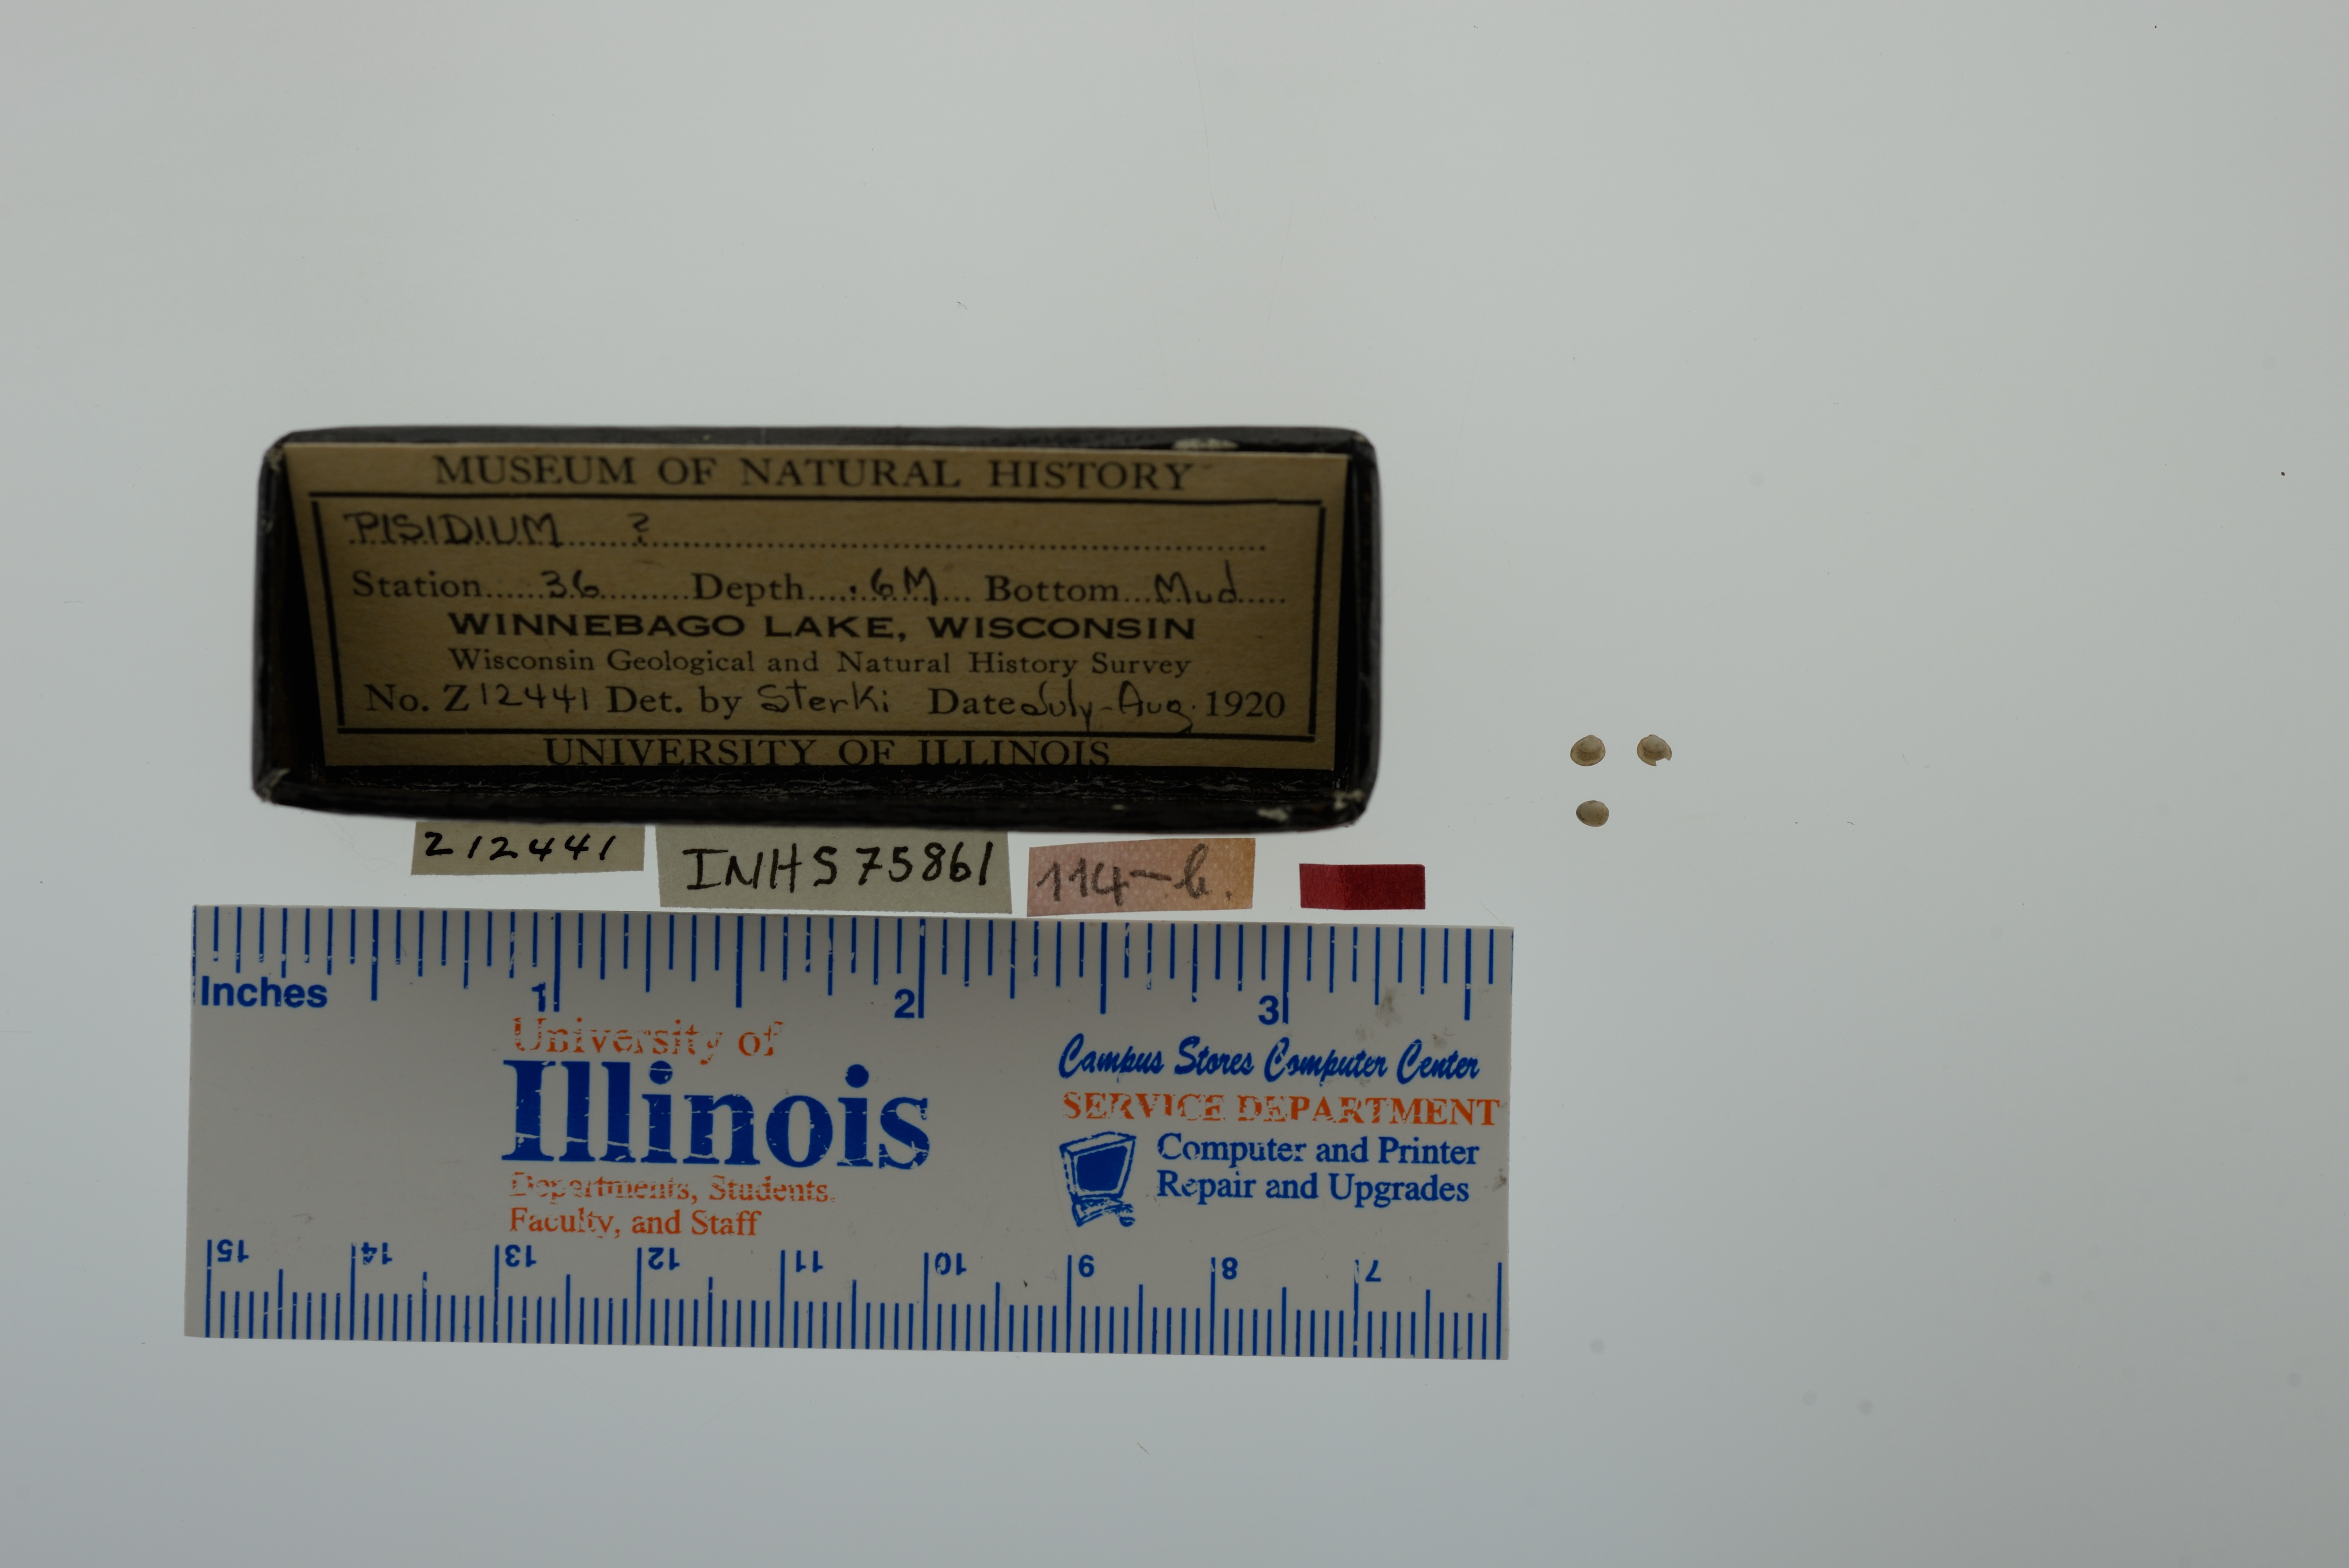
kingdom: Animalia
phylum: Mollusca
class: Bivalvia
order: Sphaeriida
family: Sphaeriidae
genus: Pisidium
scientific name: Pisidium
